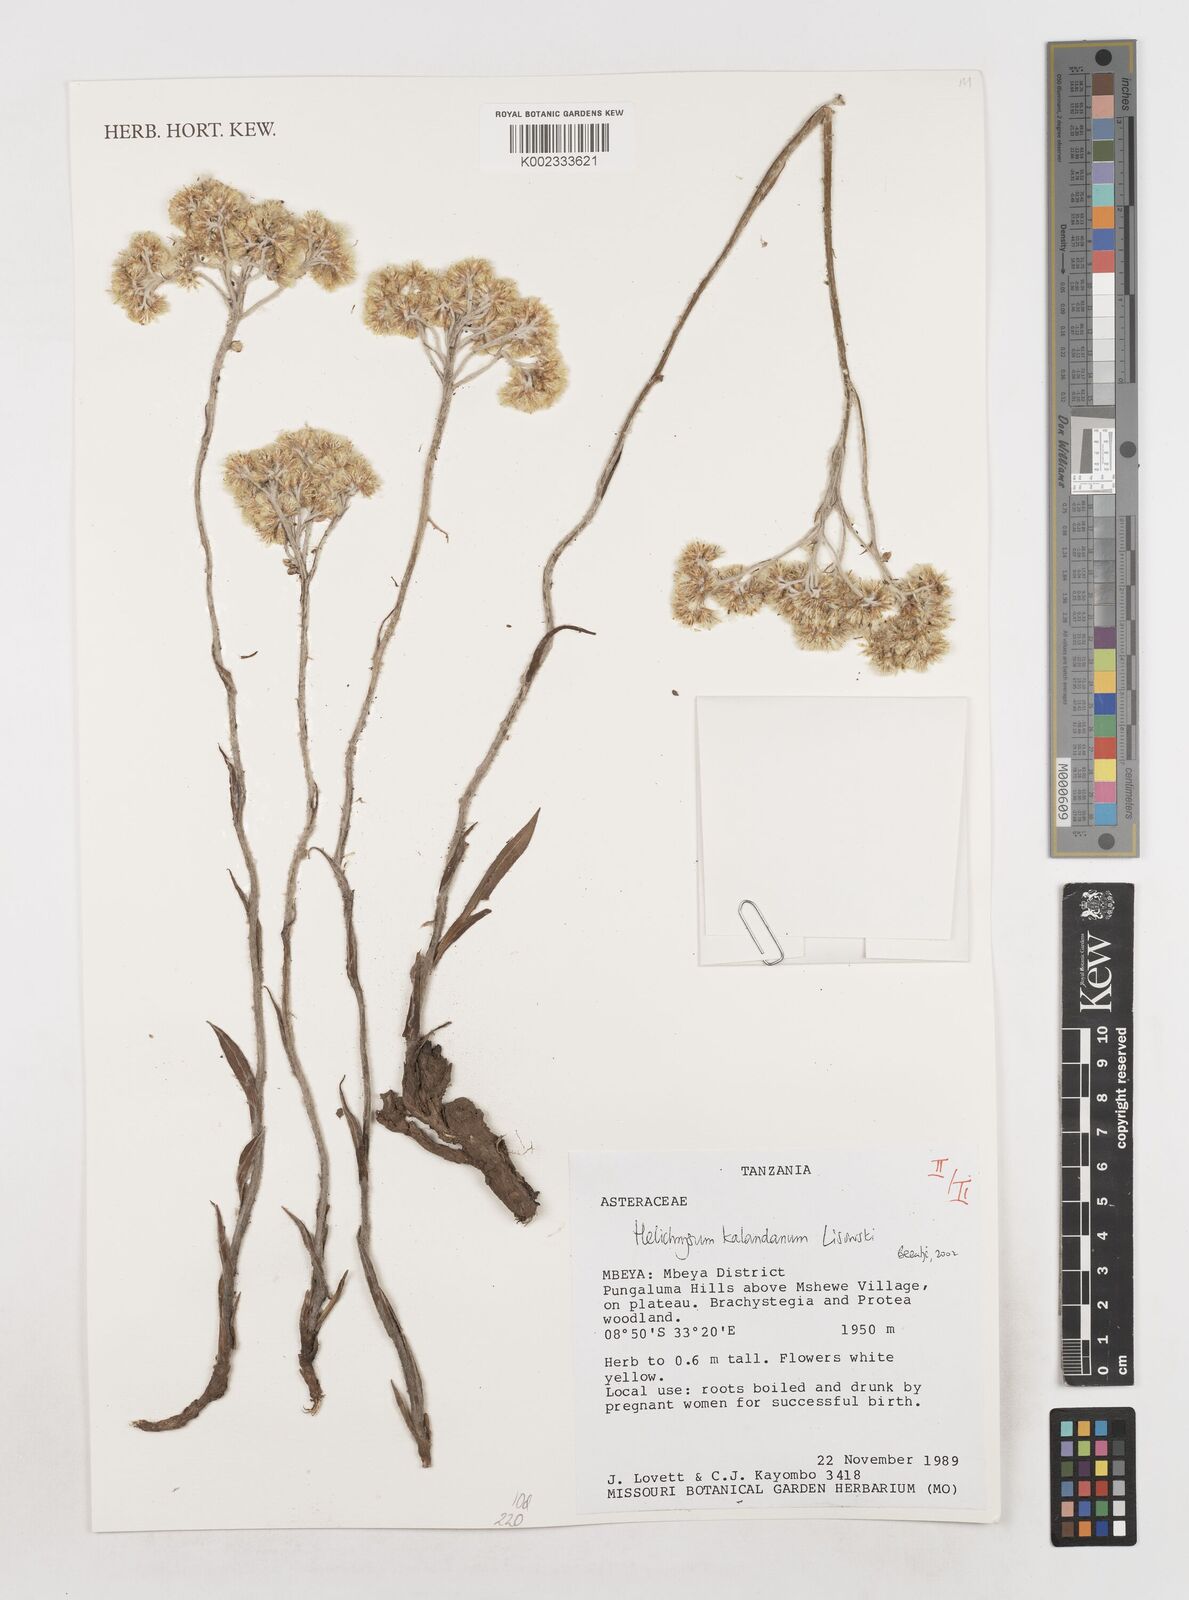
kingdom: Plantae
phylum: Tracheophyta
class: Magnoliopsida
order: Asterales
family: Asteraceae
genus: Helichrysum
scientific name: Helichrysum kalandanum
